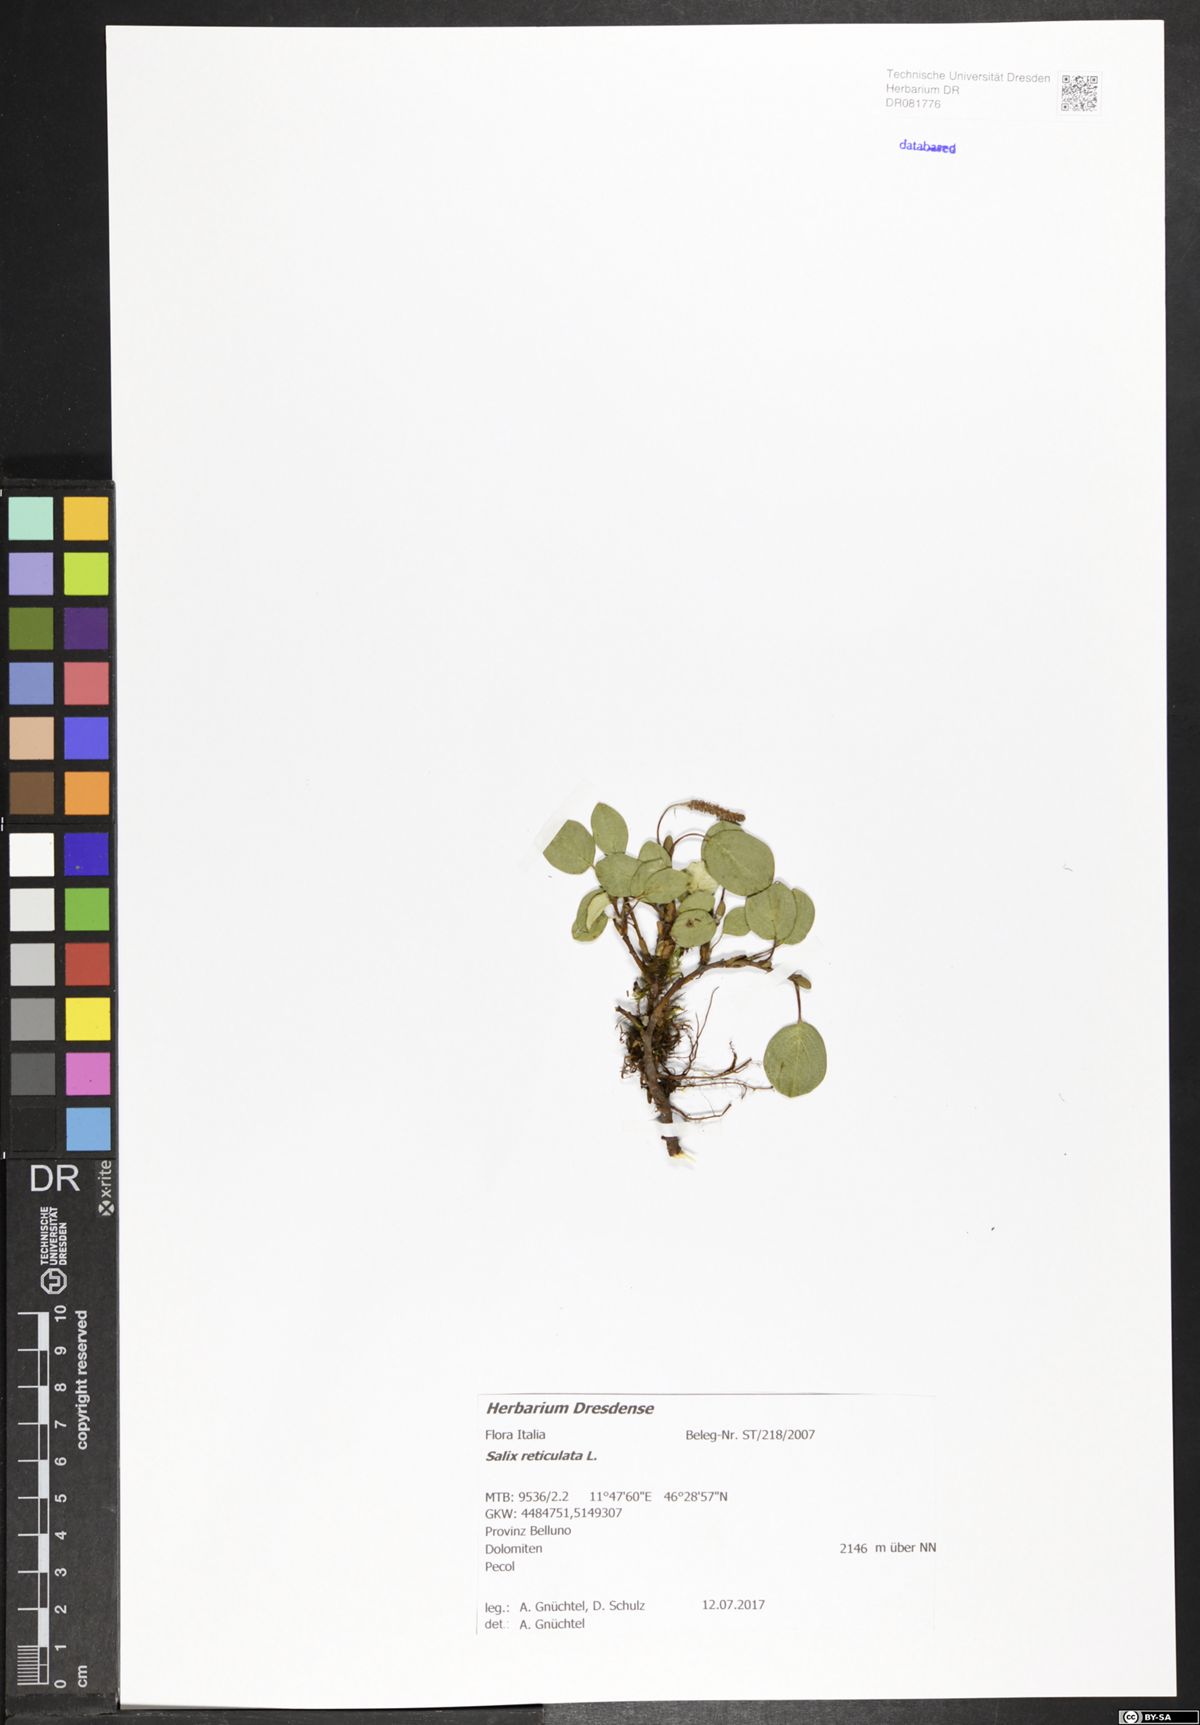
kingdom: Plantae
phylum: Tracheophyta
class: Magnoliopsida
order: Malpighiales
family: Salicaceae
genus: Salix
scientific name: Salix reticulata
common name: Net-leaved willow
